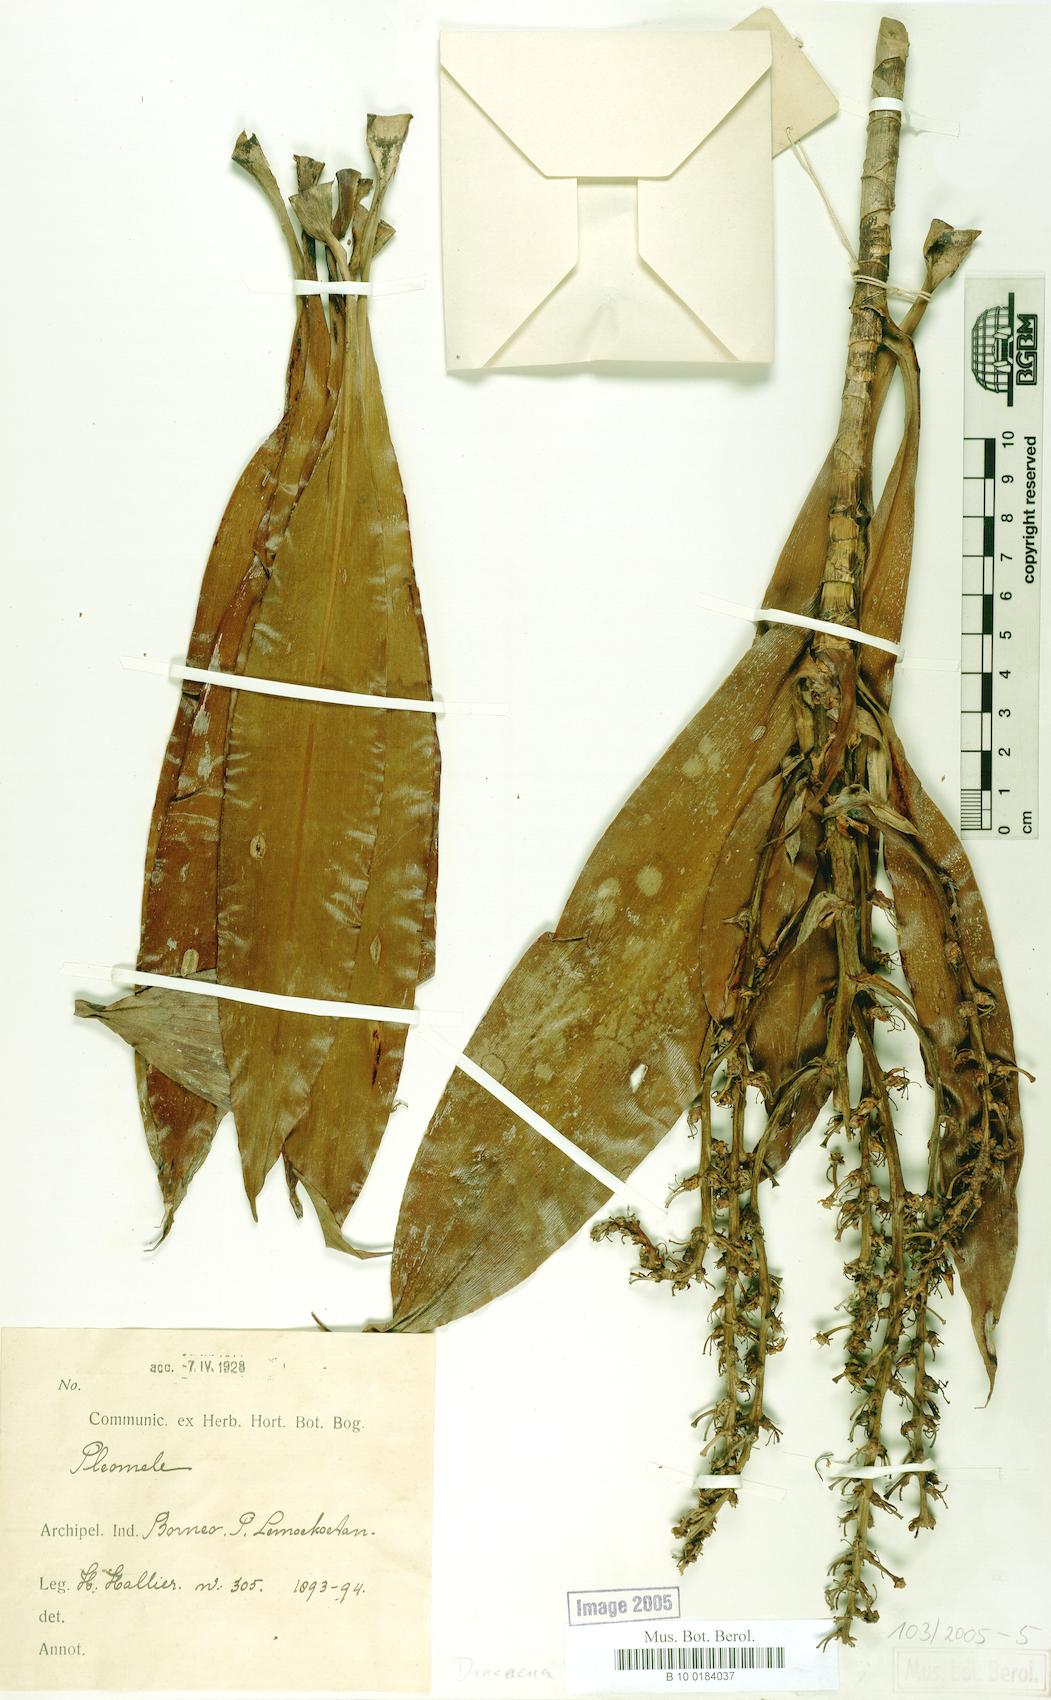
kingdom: Plantae
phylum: Tracheophyta
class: Liliopsida
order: Asparagales
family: Asparagaceae
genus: Dracaena
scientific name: Dracaena pendula
